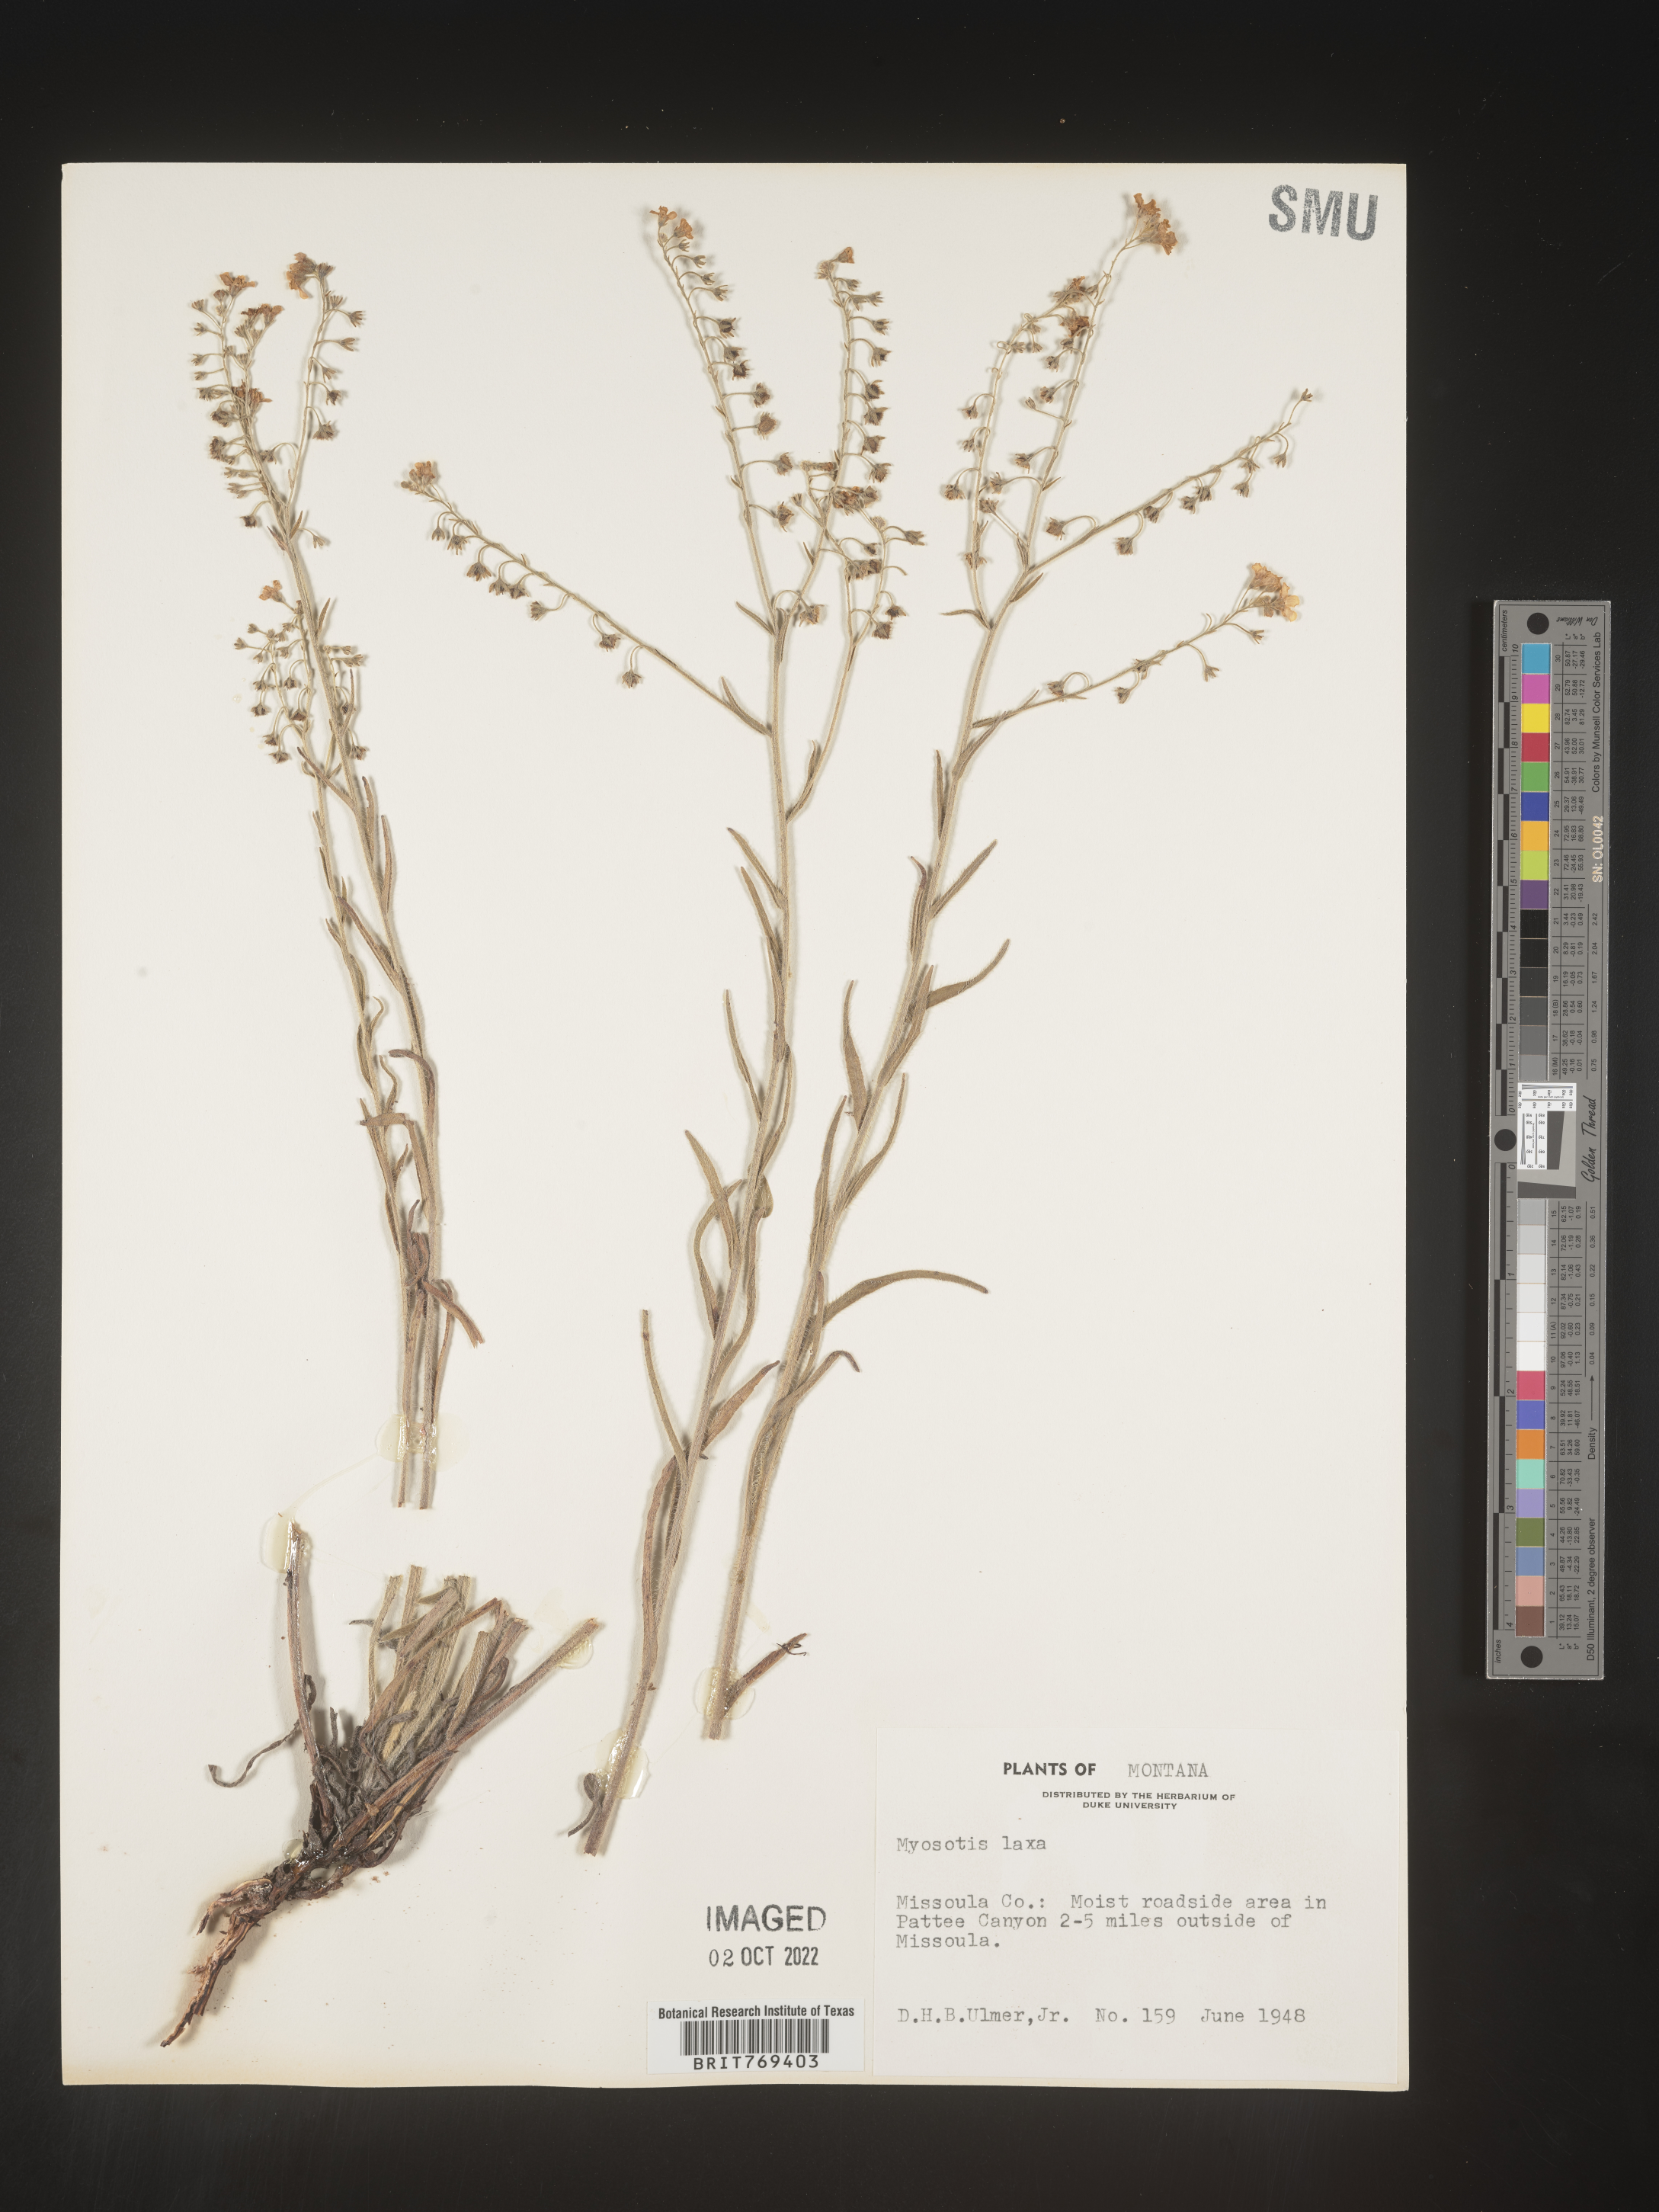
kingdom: Plantae
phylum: Tracheophyta
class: Magnoliopsida
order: Boraginales
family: Boraginaceae
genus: Myosotis
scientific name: Myosotis
